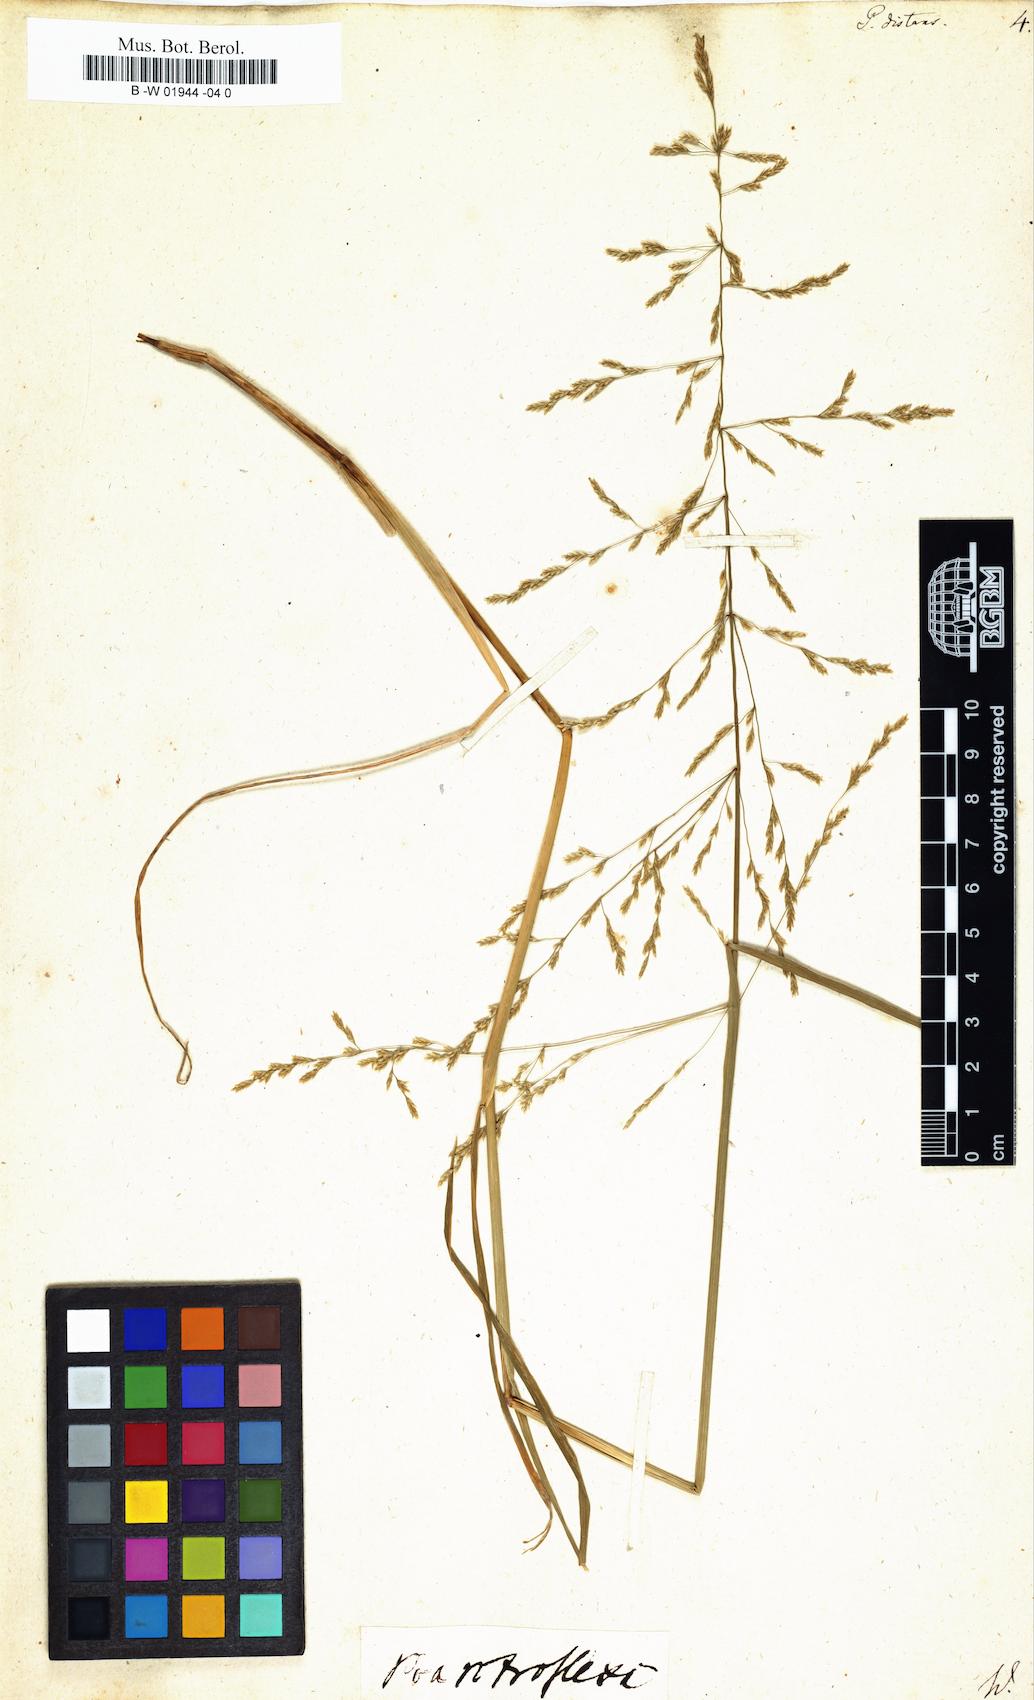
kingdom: Plantae
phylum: Tracheophyta
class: Liliopsida
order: Poales
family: Poaceae
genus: Poa
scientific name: Poa distans
